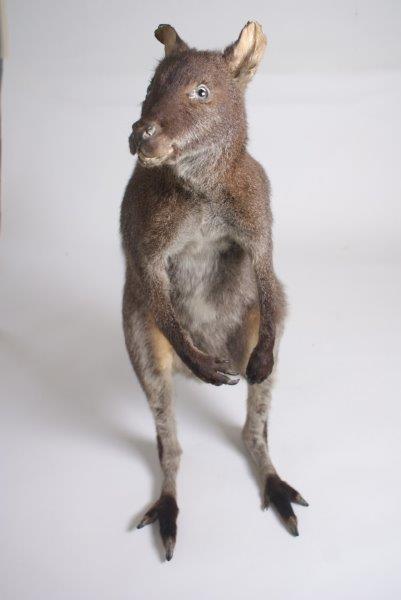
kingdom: Animalia
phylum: Chordata
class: Mammalia
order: Diprotodontia
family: Macropodidae
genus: Macropus
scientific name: Macropus rufogriseus
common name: Red-necked Wallaby
